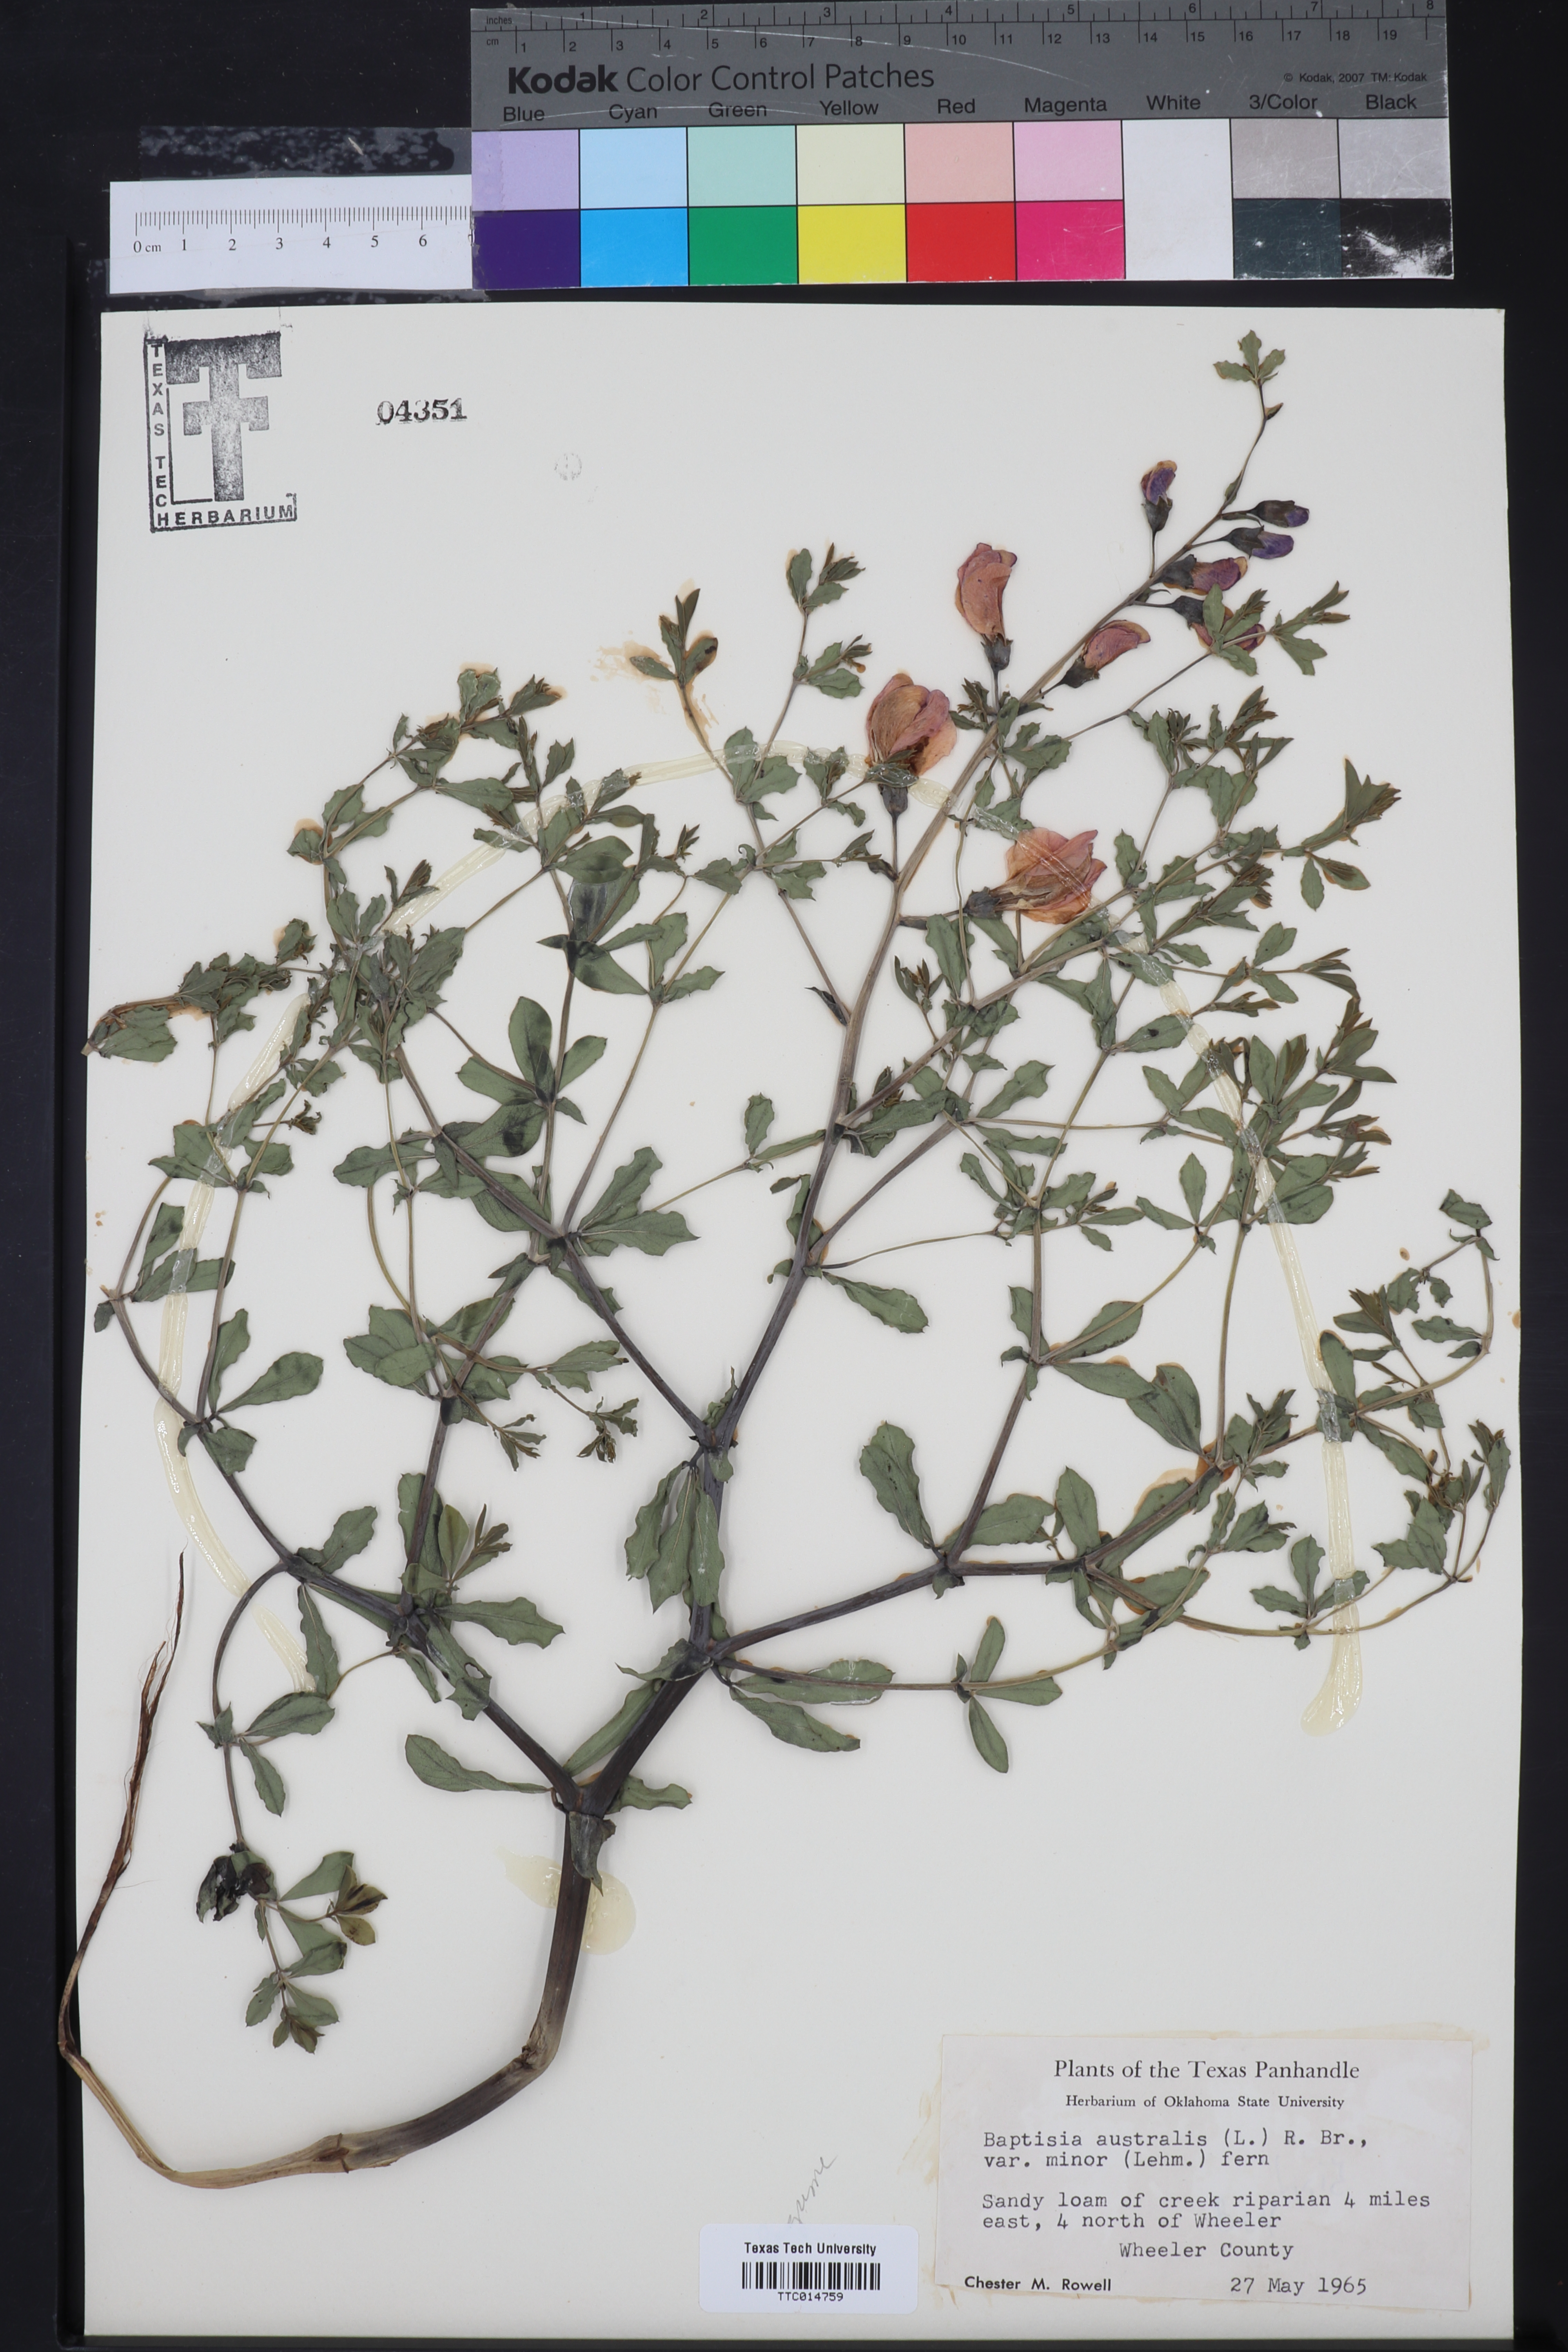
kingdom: Plantae
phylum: Tracheophyta
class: Magnoliopsida
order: Fabales
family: Fabaceae
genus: Baptisia
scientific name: Baptisia australis
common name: Blue false indigo
